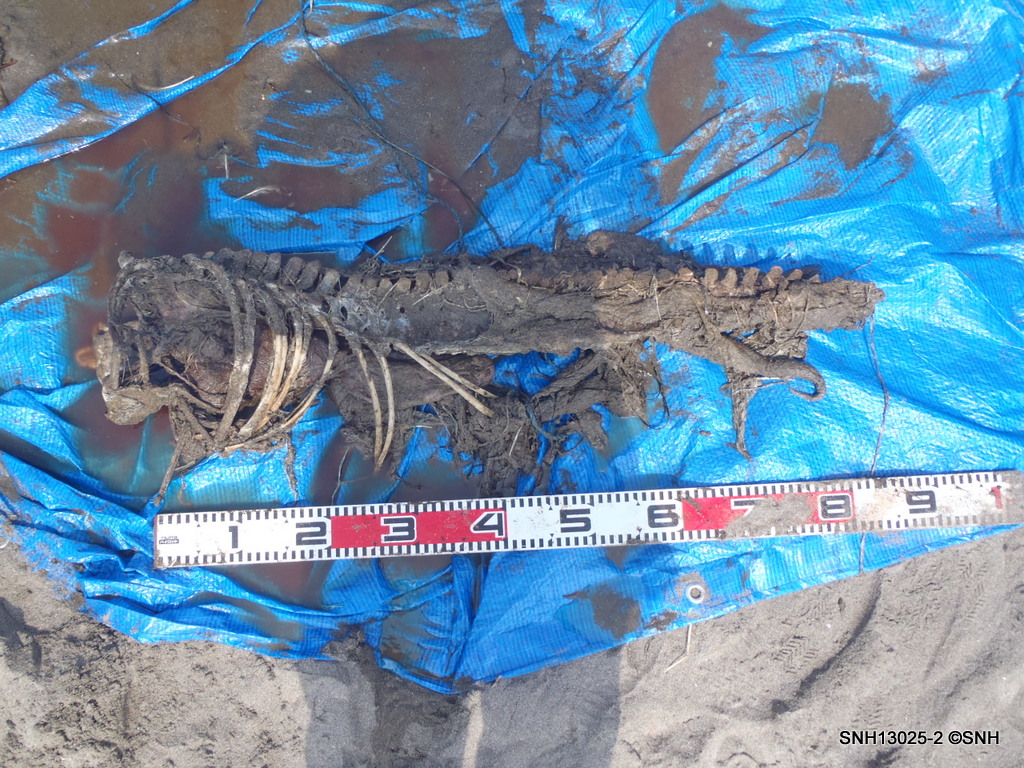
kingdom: Animalia
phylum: Chordata
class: Mammalia
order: Cetacea
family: Delphinidae
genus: Lagenorhynchus
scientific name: Lagenorhynchus obliquidens
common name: Pacific white-sided dolphin
